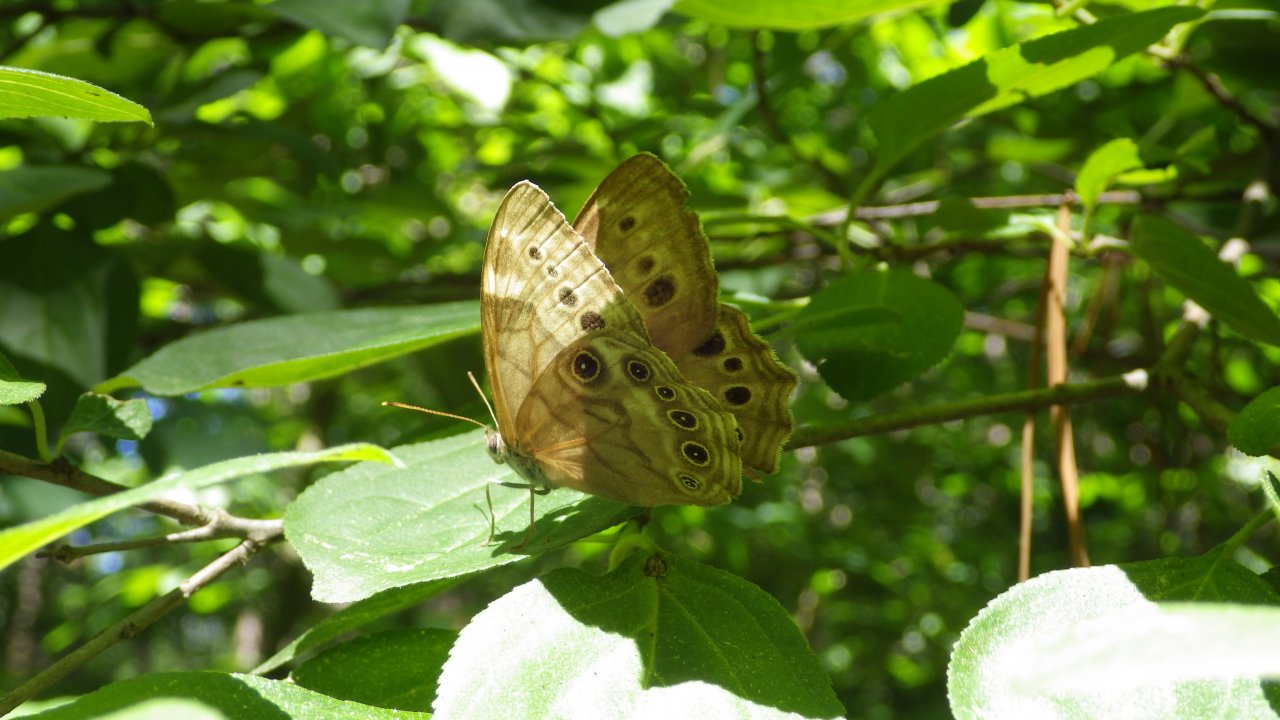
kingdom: Animalia
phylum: Arthropoda
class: Insecta
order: Lepidoptera
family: Nymphalidae
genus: Lethe
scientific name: Lethe anthedon
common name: Northern Pearly-Eye
